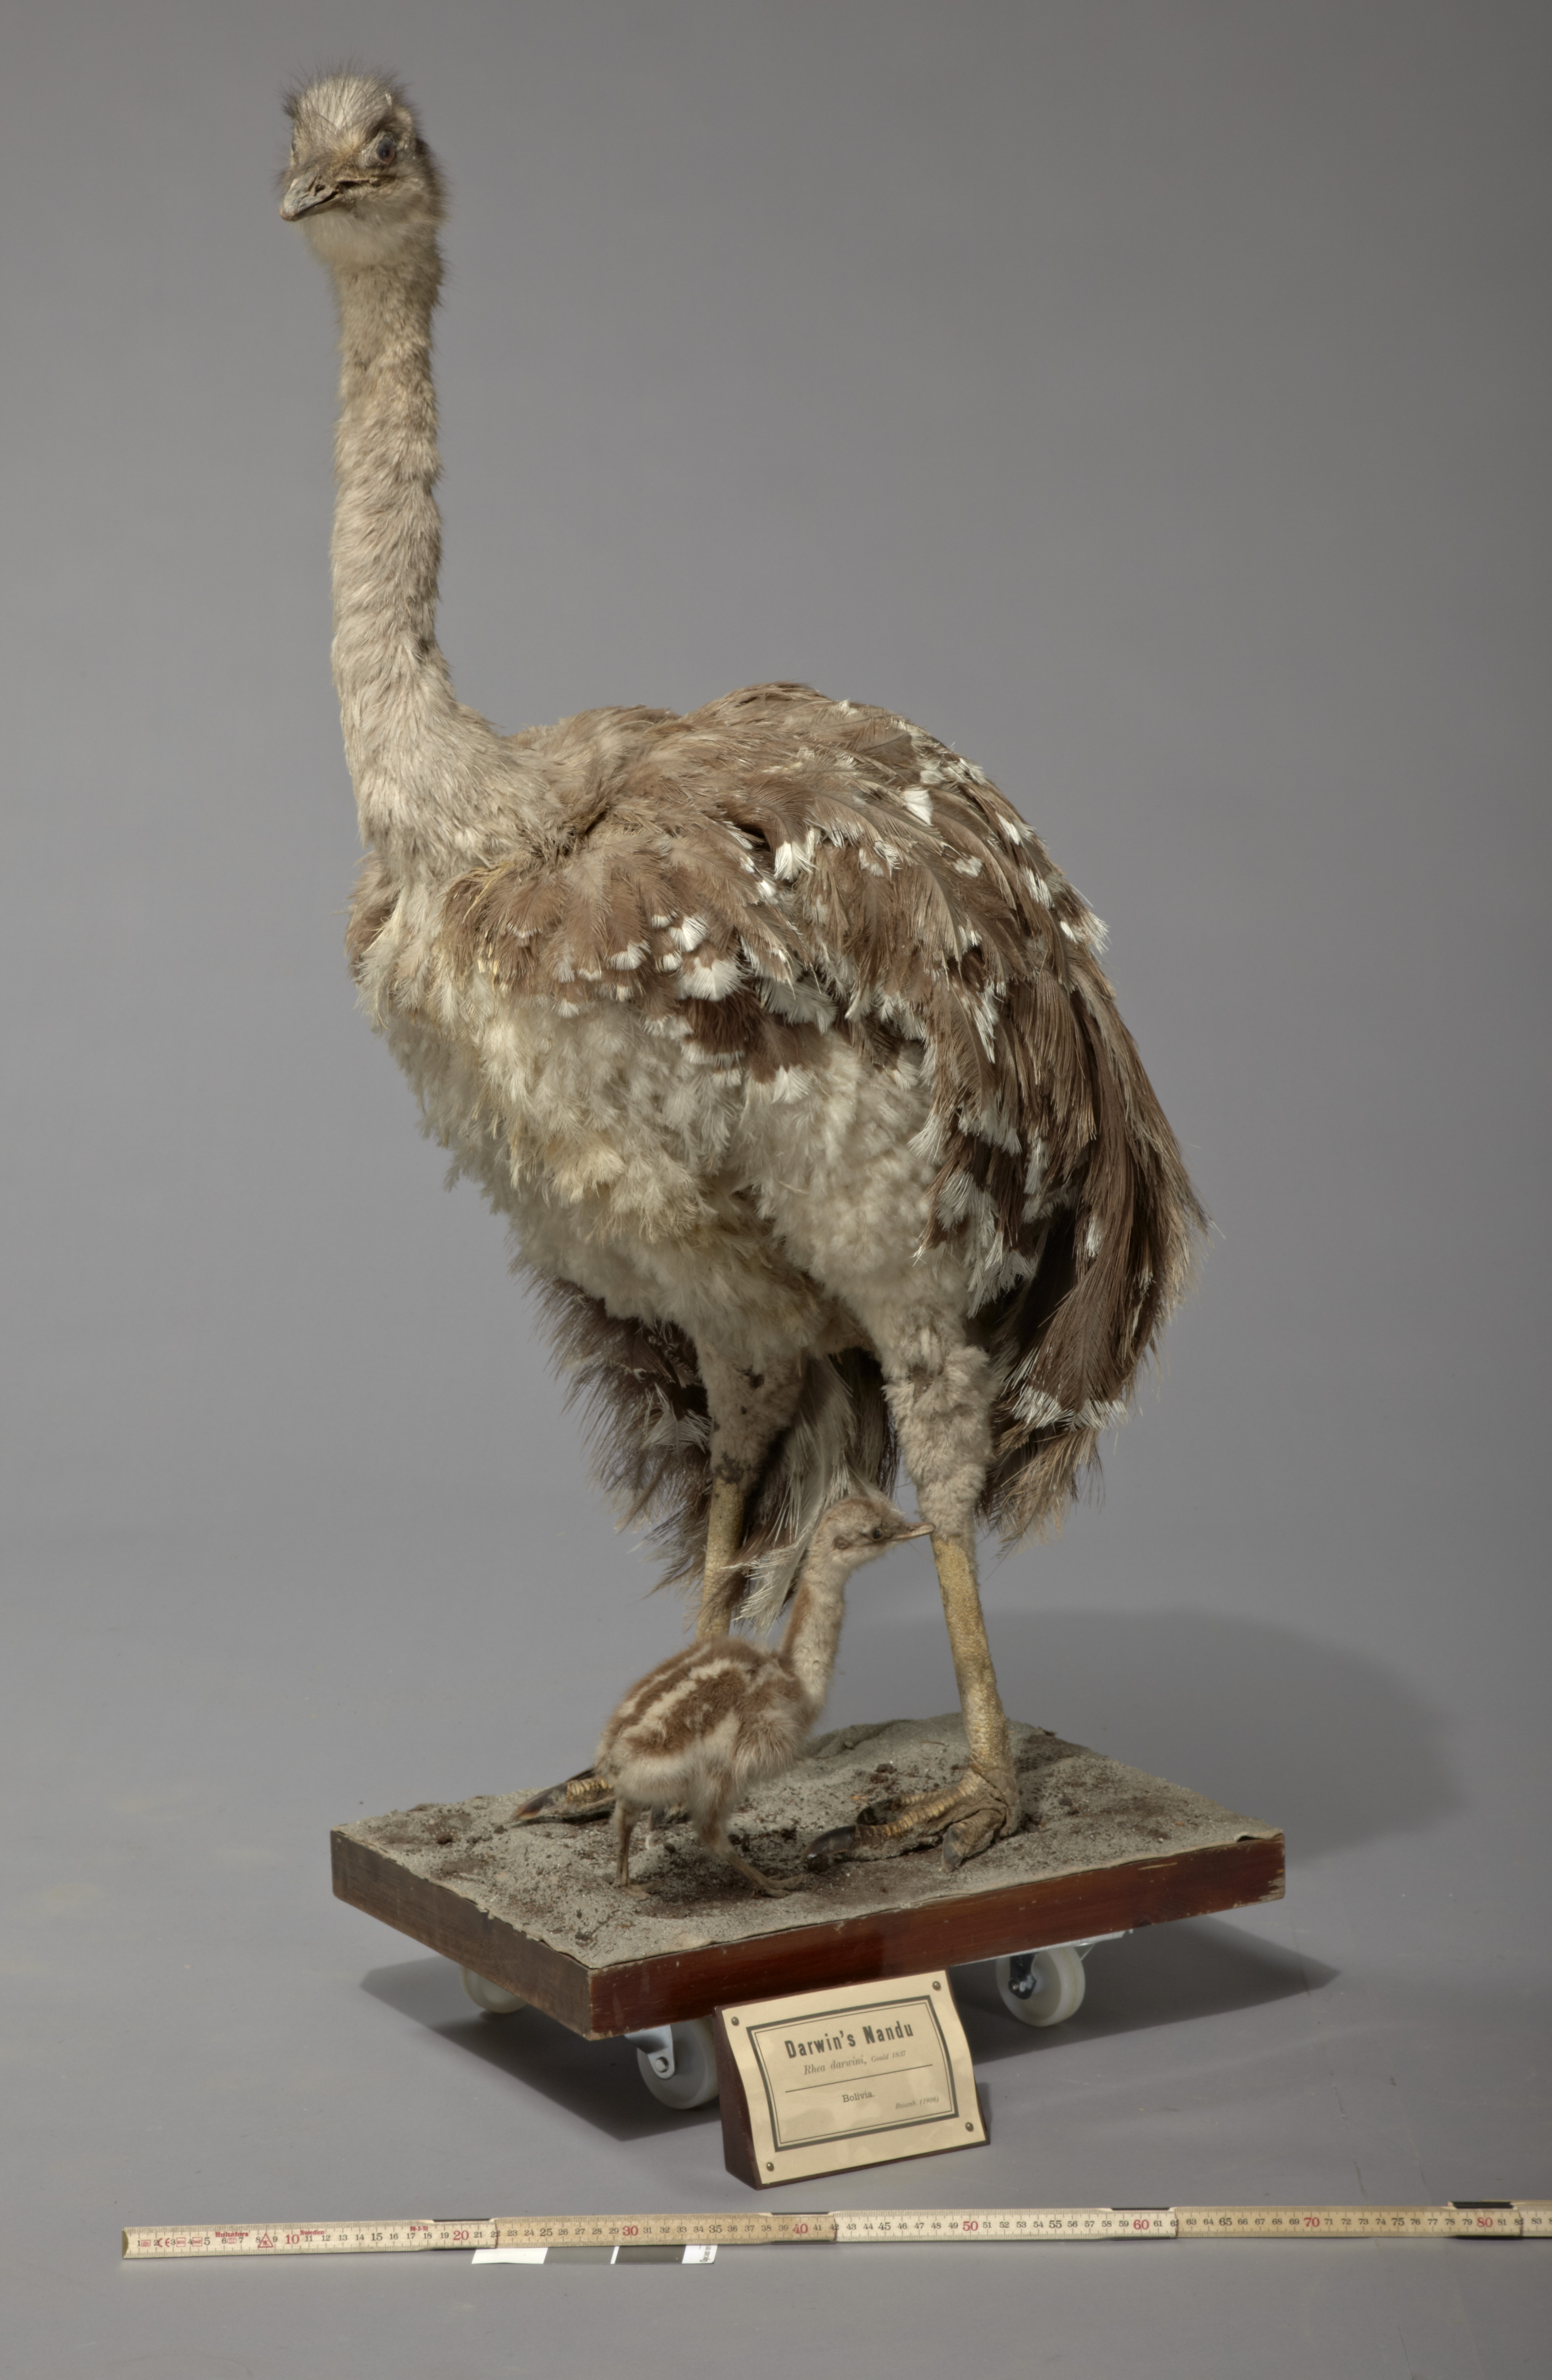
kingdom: Animalia
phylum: Chordata
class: Aves
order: Rheiformes
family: Rheidae
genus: Rhea
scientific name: Rhea pennata
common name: Lesser rhea
